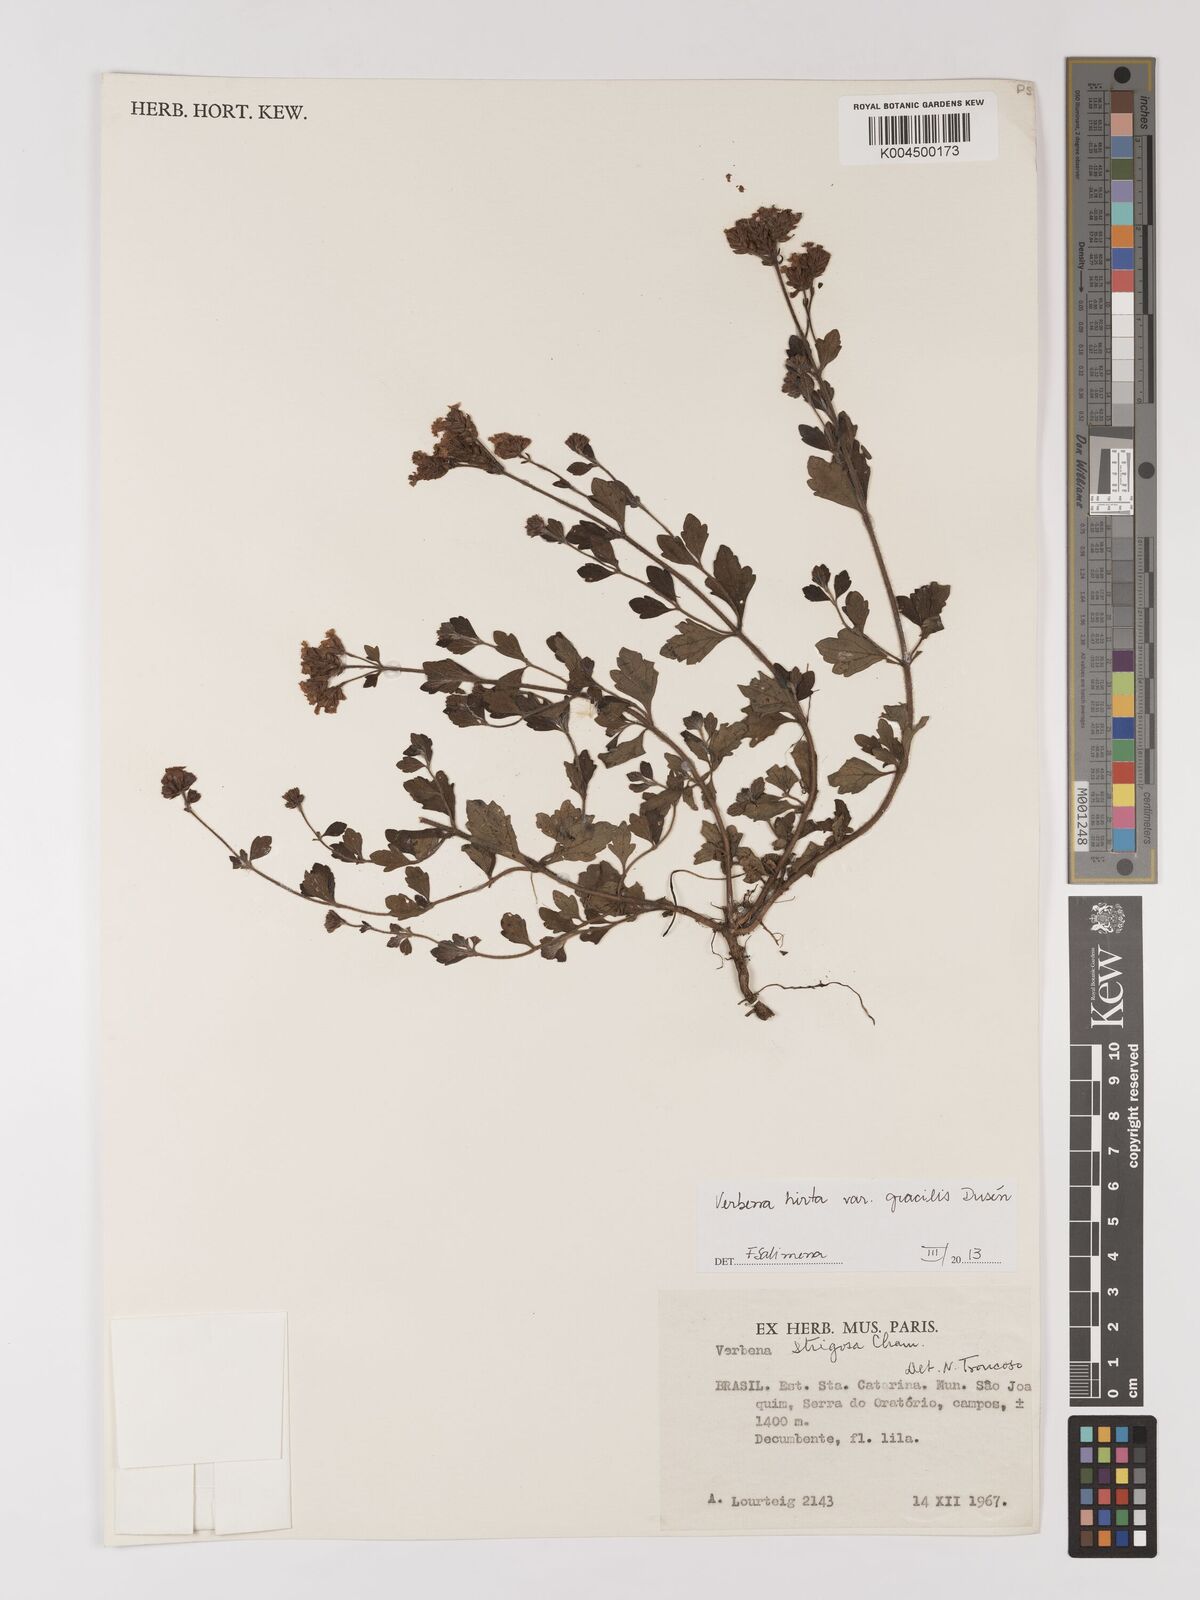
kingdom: Plantae
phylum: Tracheophyta
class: Magnoliopsida
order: Lamiales
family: Verbenaceae
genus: Verbena
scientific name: Verbena hirta
